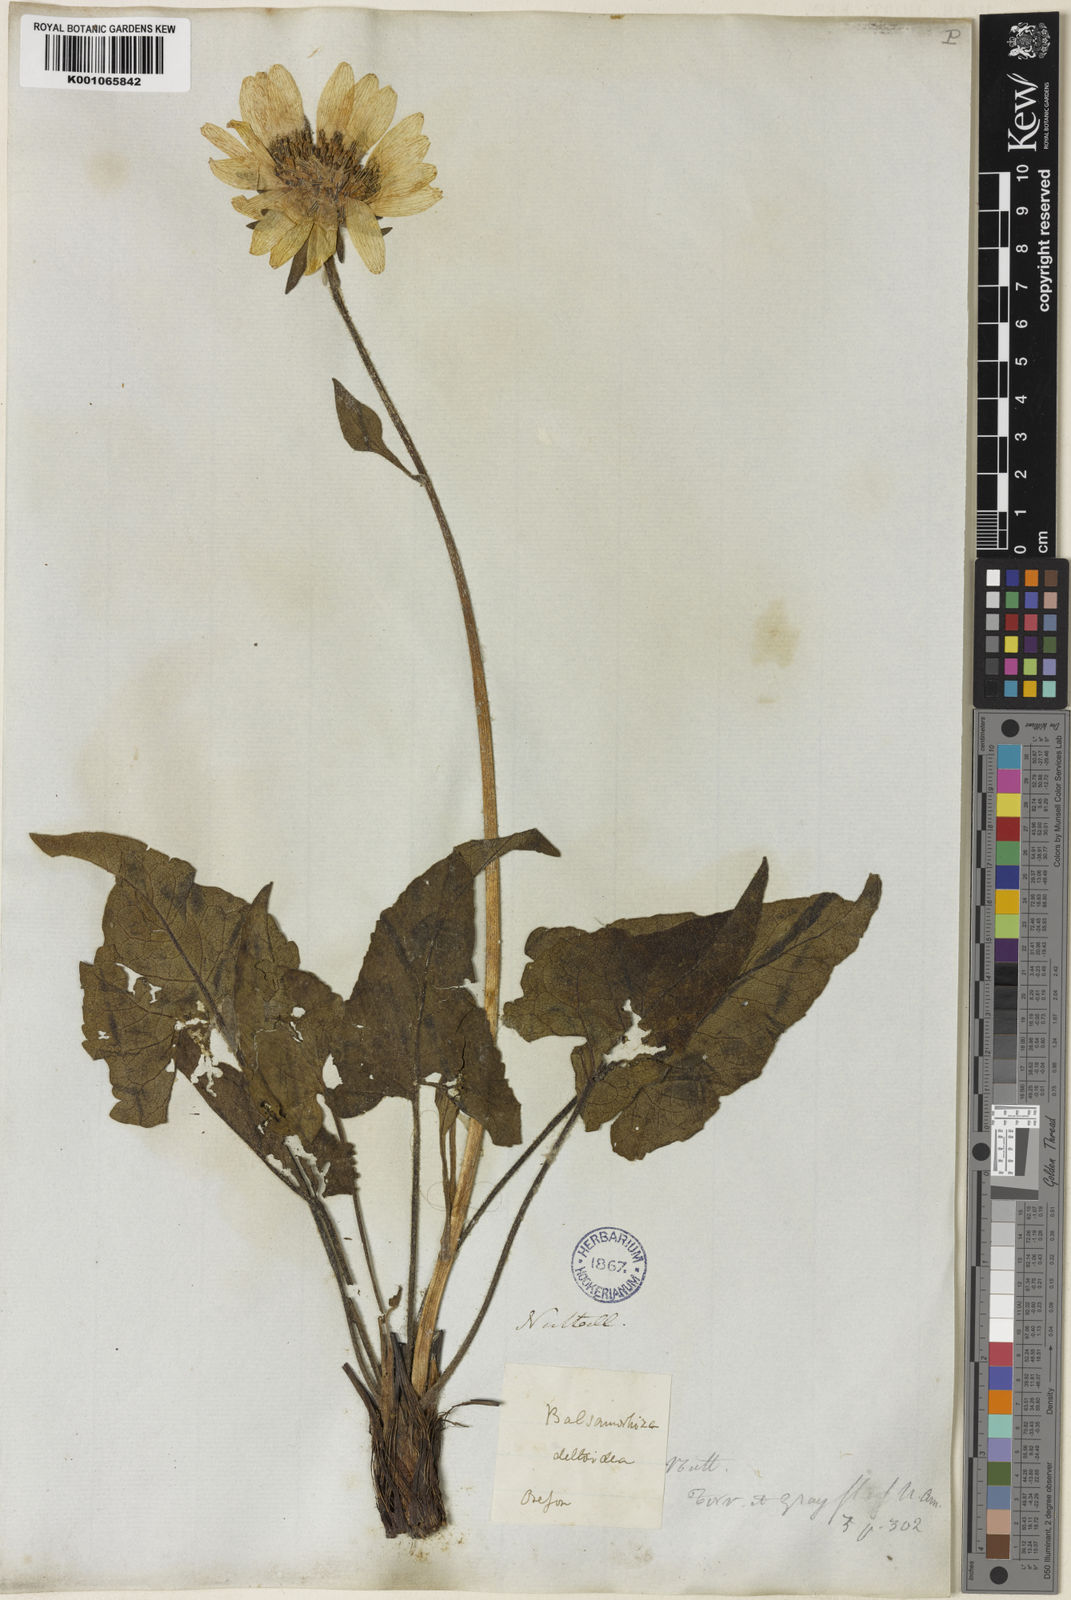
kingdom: Plantae
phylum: Tracheophyta
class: Magnoliopsida
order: Asterales
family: Asteraceae
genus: Balsamorhiza
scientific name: Balsamorhiza deltoidea
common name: Deltoid balsamroot
